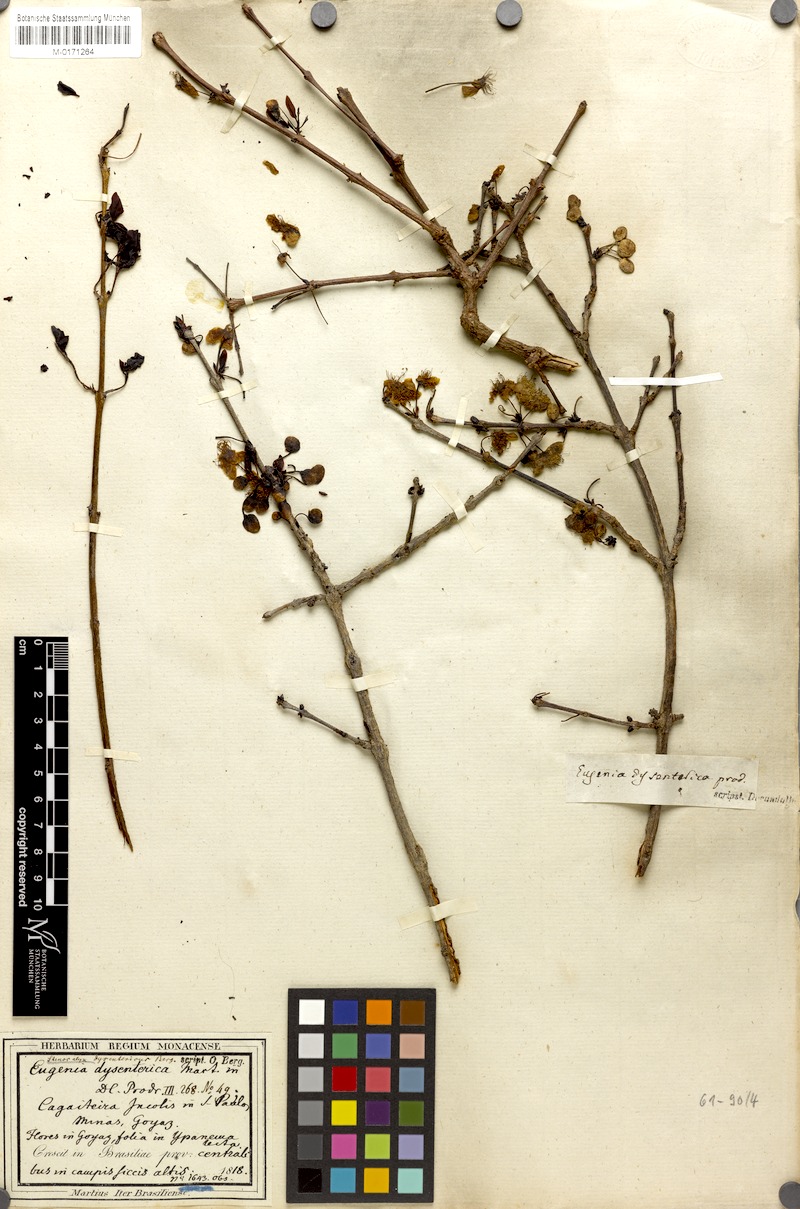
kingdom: Plantae
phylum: Tracheophyta
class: Magnoliopsida
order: Myrtales
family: Myrtaceae
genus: Eugenia
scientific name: Eugenia dysenterica
